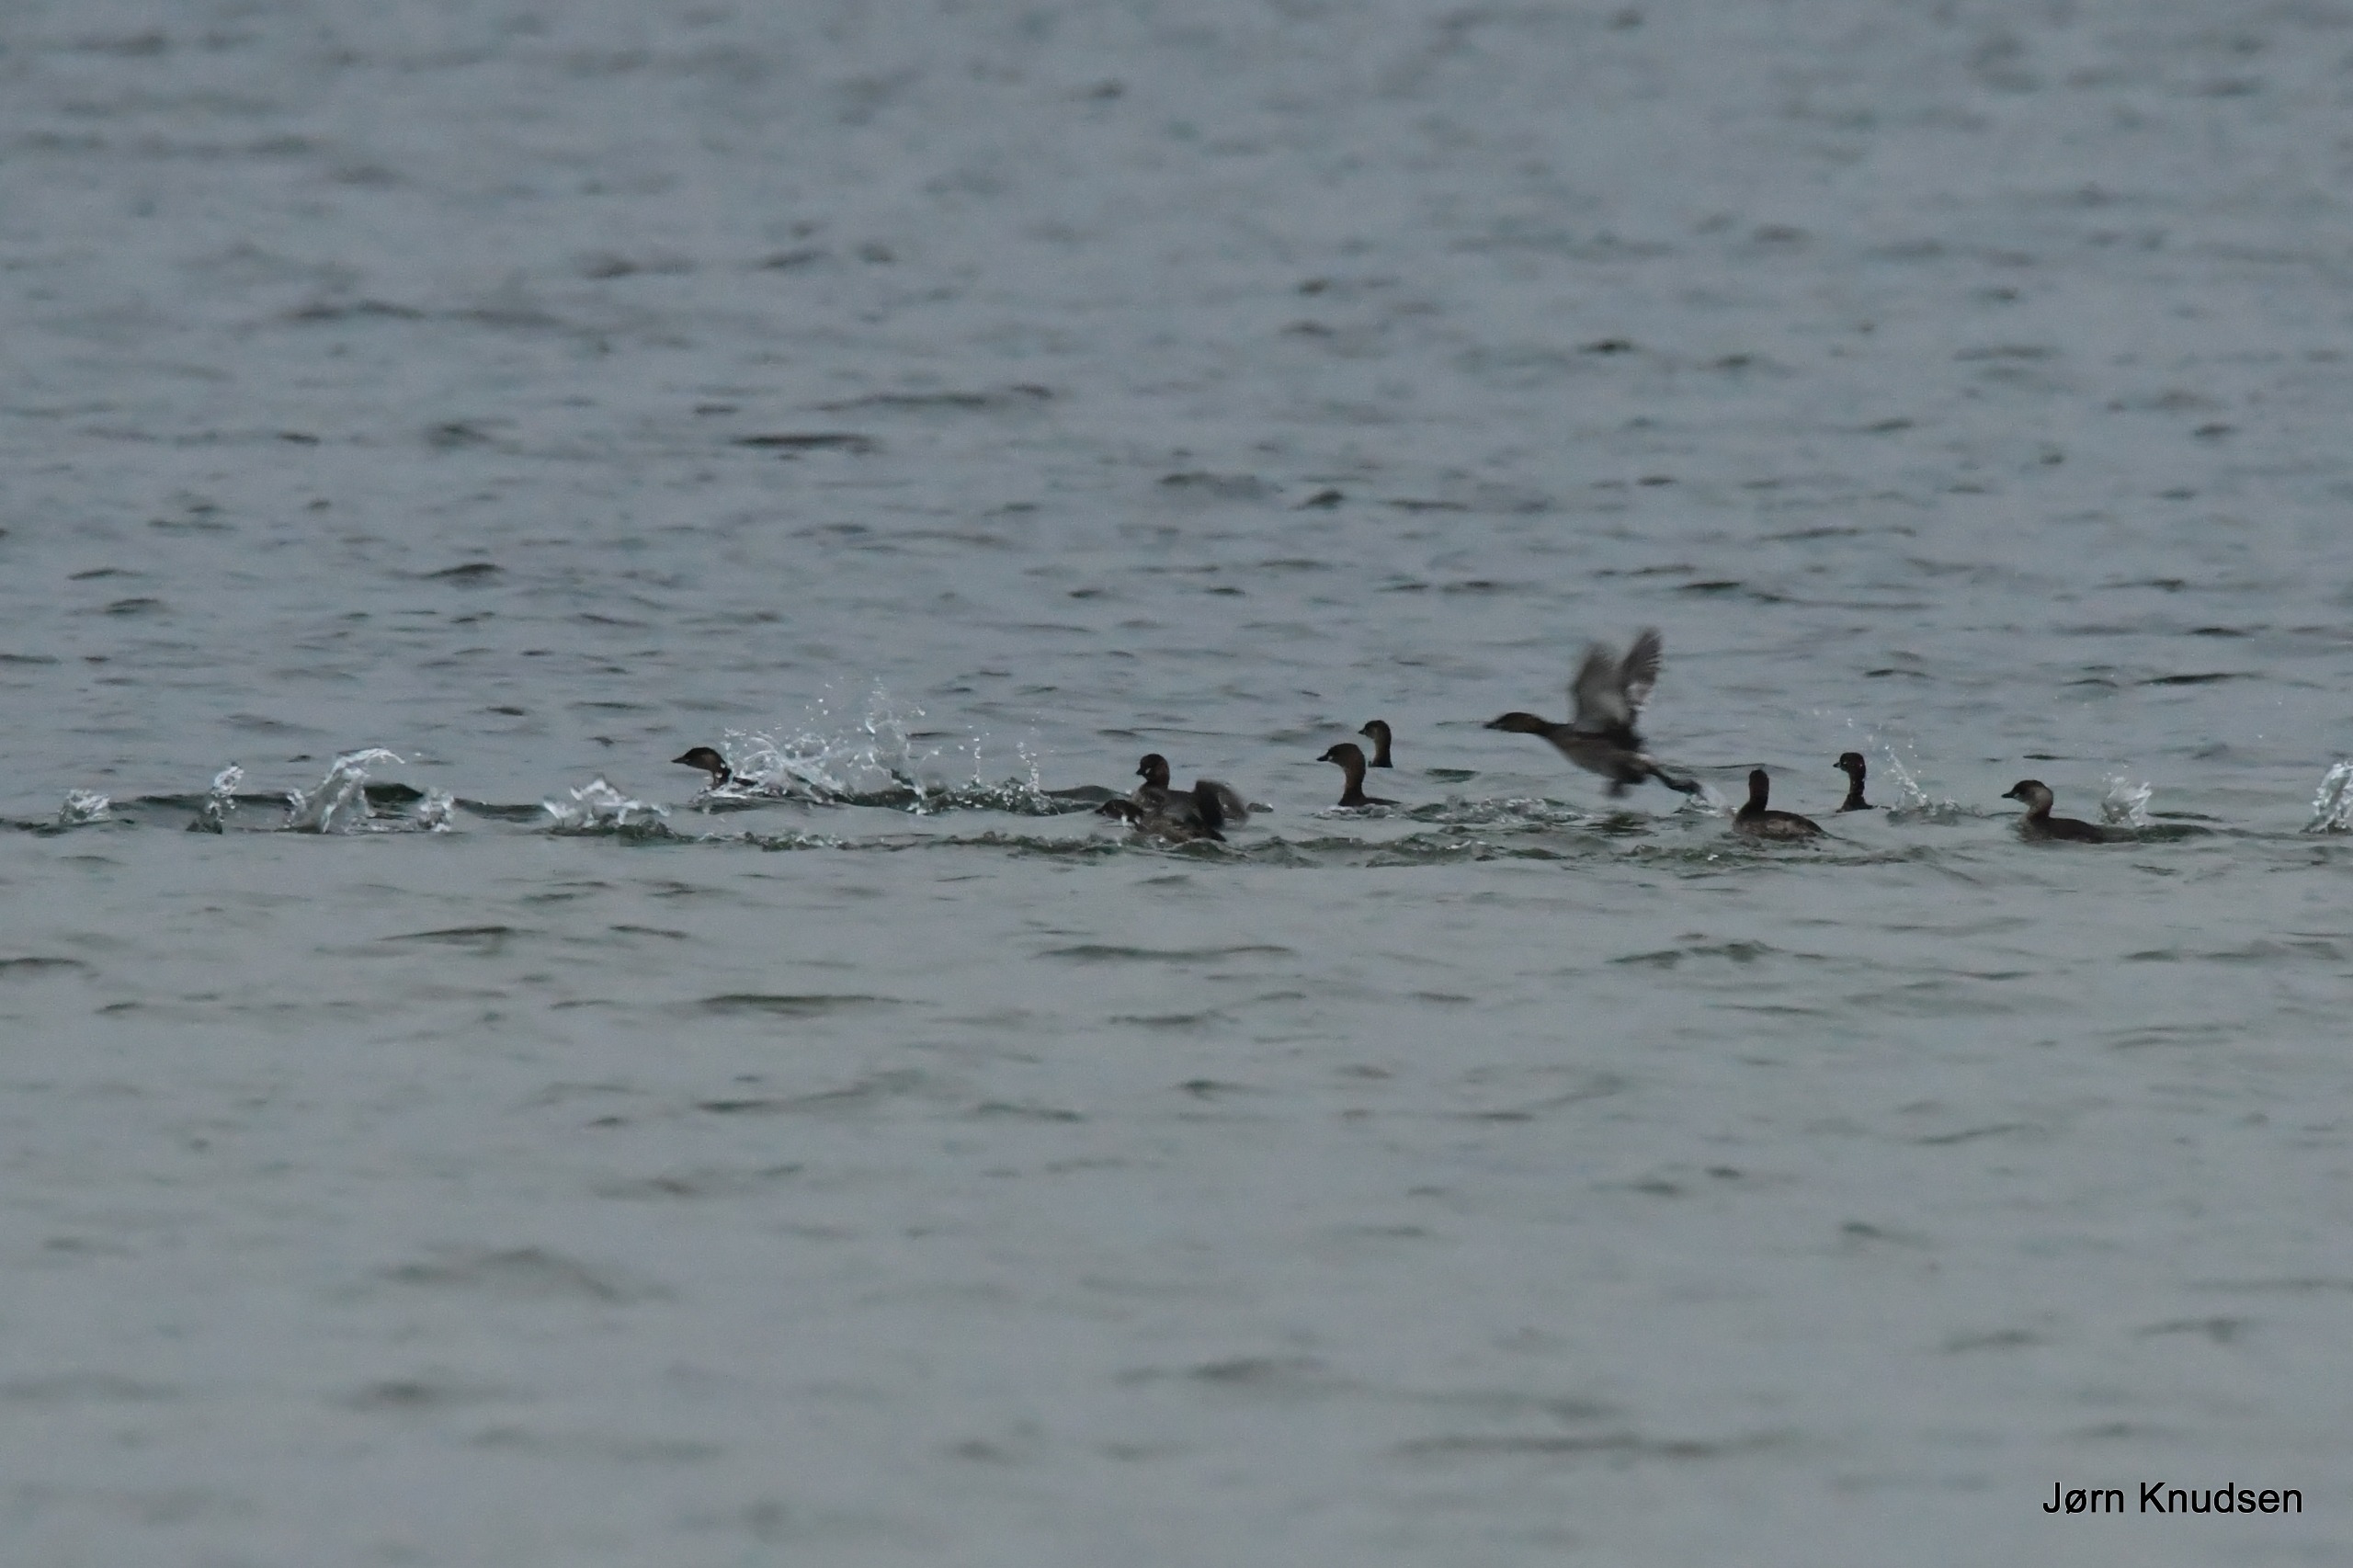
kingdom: Animalia
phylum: Chordata
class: Aves
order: Podicipediformes
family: Podicipedidae
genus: Tachybaptus
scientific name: Tachybaptus ruficollis
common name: Lille lappedykker
